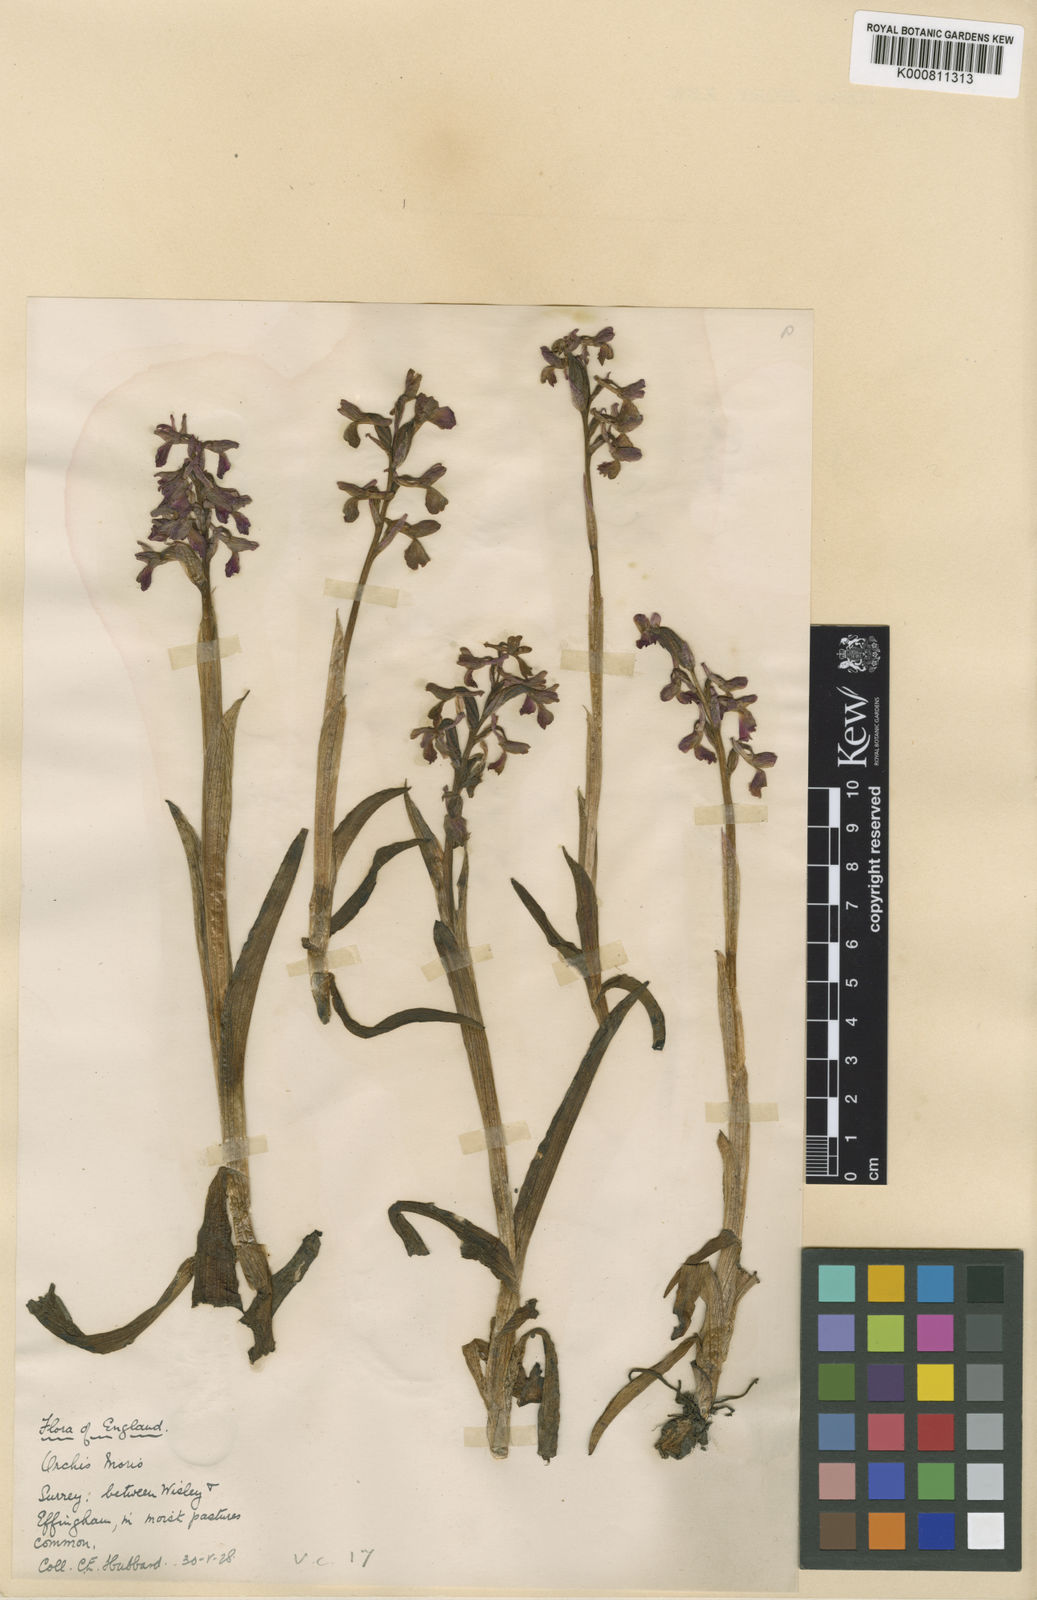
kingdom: Plantae
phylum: Tracheophyta
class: Liliopsida
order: Asparagales
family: Orchidaceae
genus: Anacamptis
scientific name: Anacamptis morio
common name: Green-winged orchid
